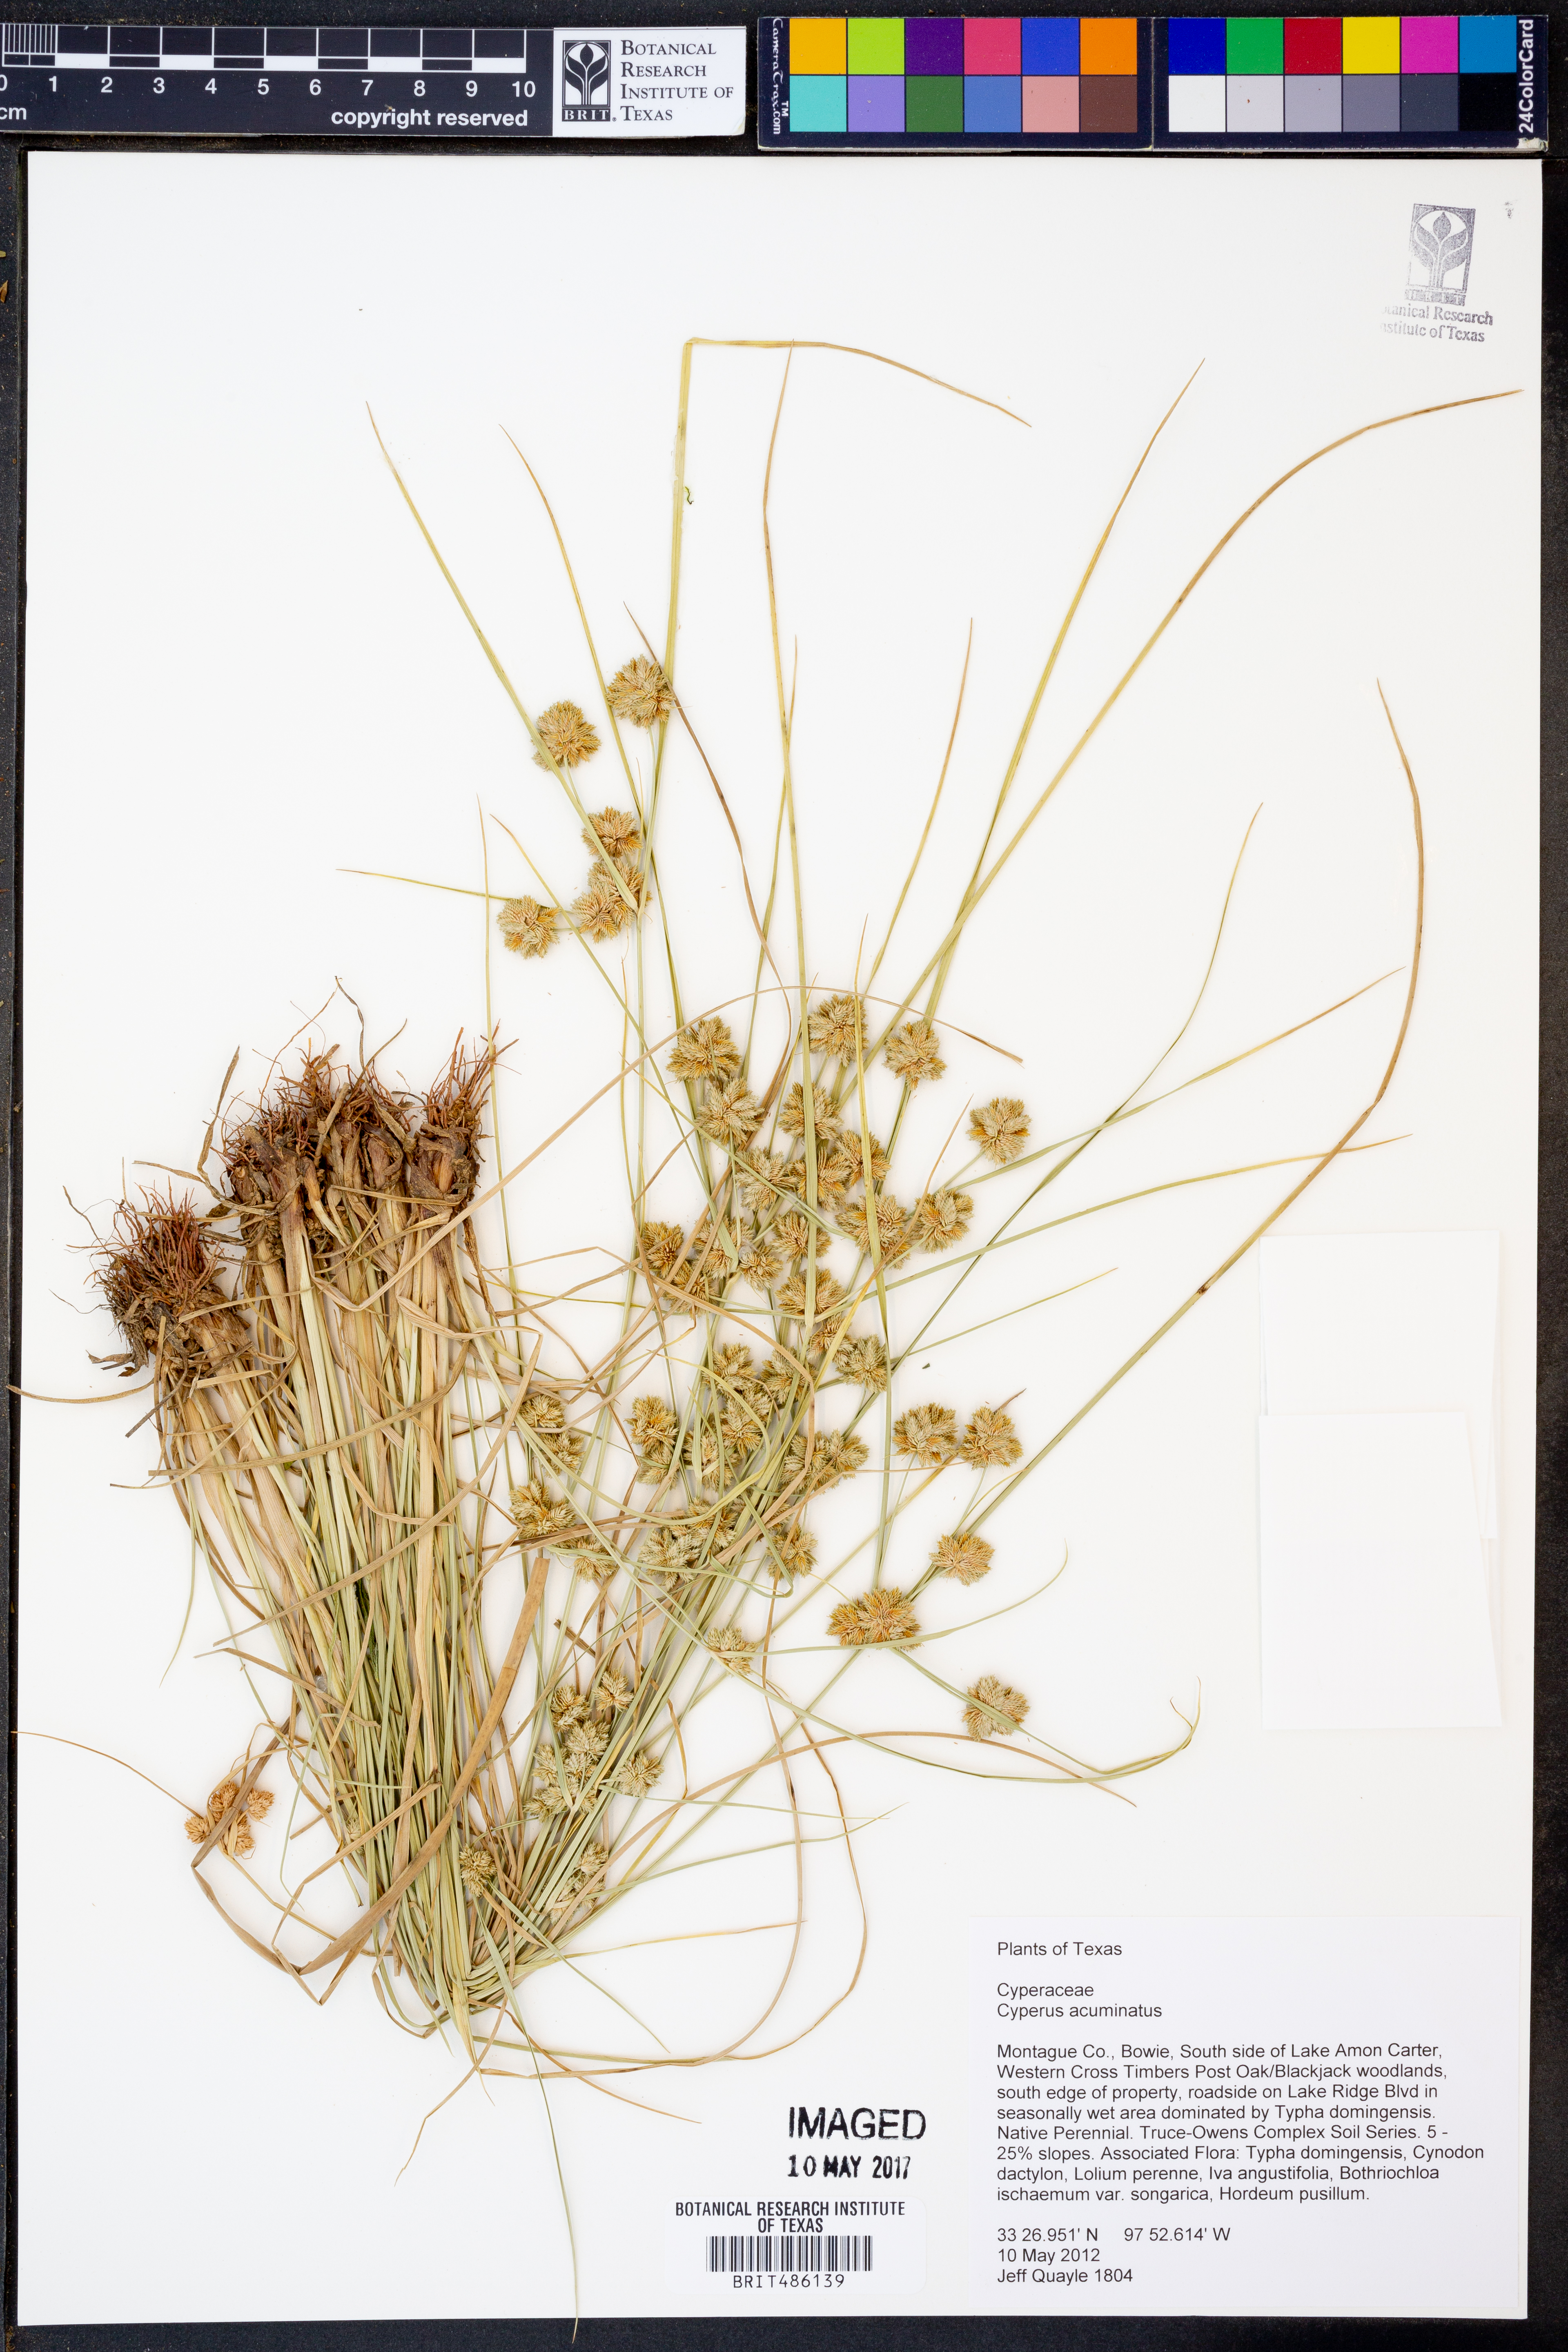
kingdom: Plantae
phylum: Tracheophyta
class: Liliopsida
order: Poales
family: Cyperaceae
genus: Cyperus
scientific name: Cyperus acuminatus
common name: Short-pointed cyperus
